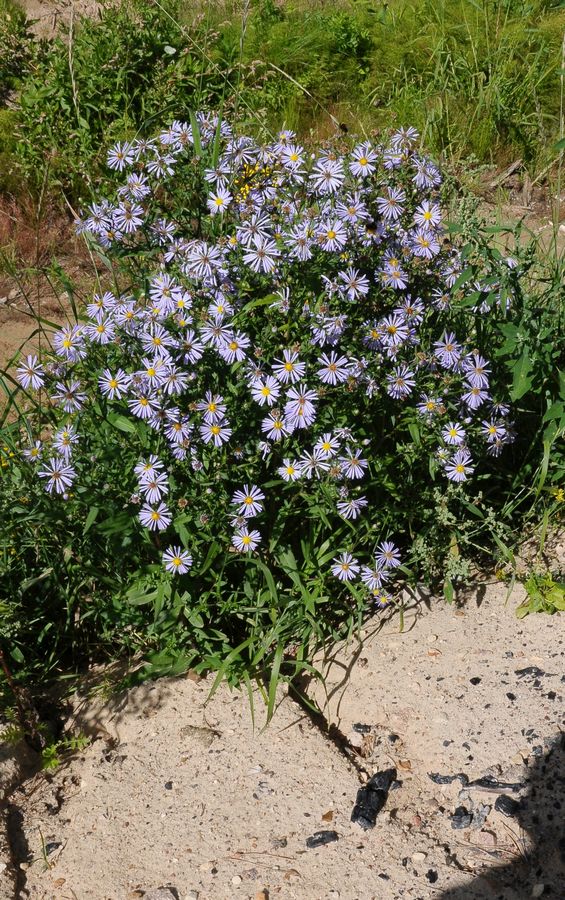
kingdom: Plantae
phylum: Tracheophyta
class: Magnoliopsida
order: Asterales
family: Asteraceae
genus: Symphyotrichum
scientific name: Symphyotrichum
